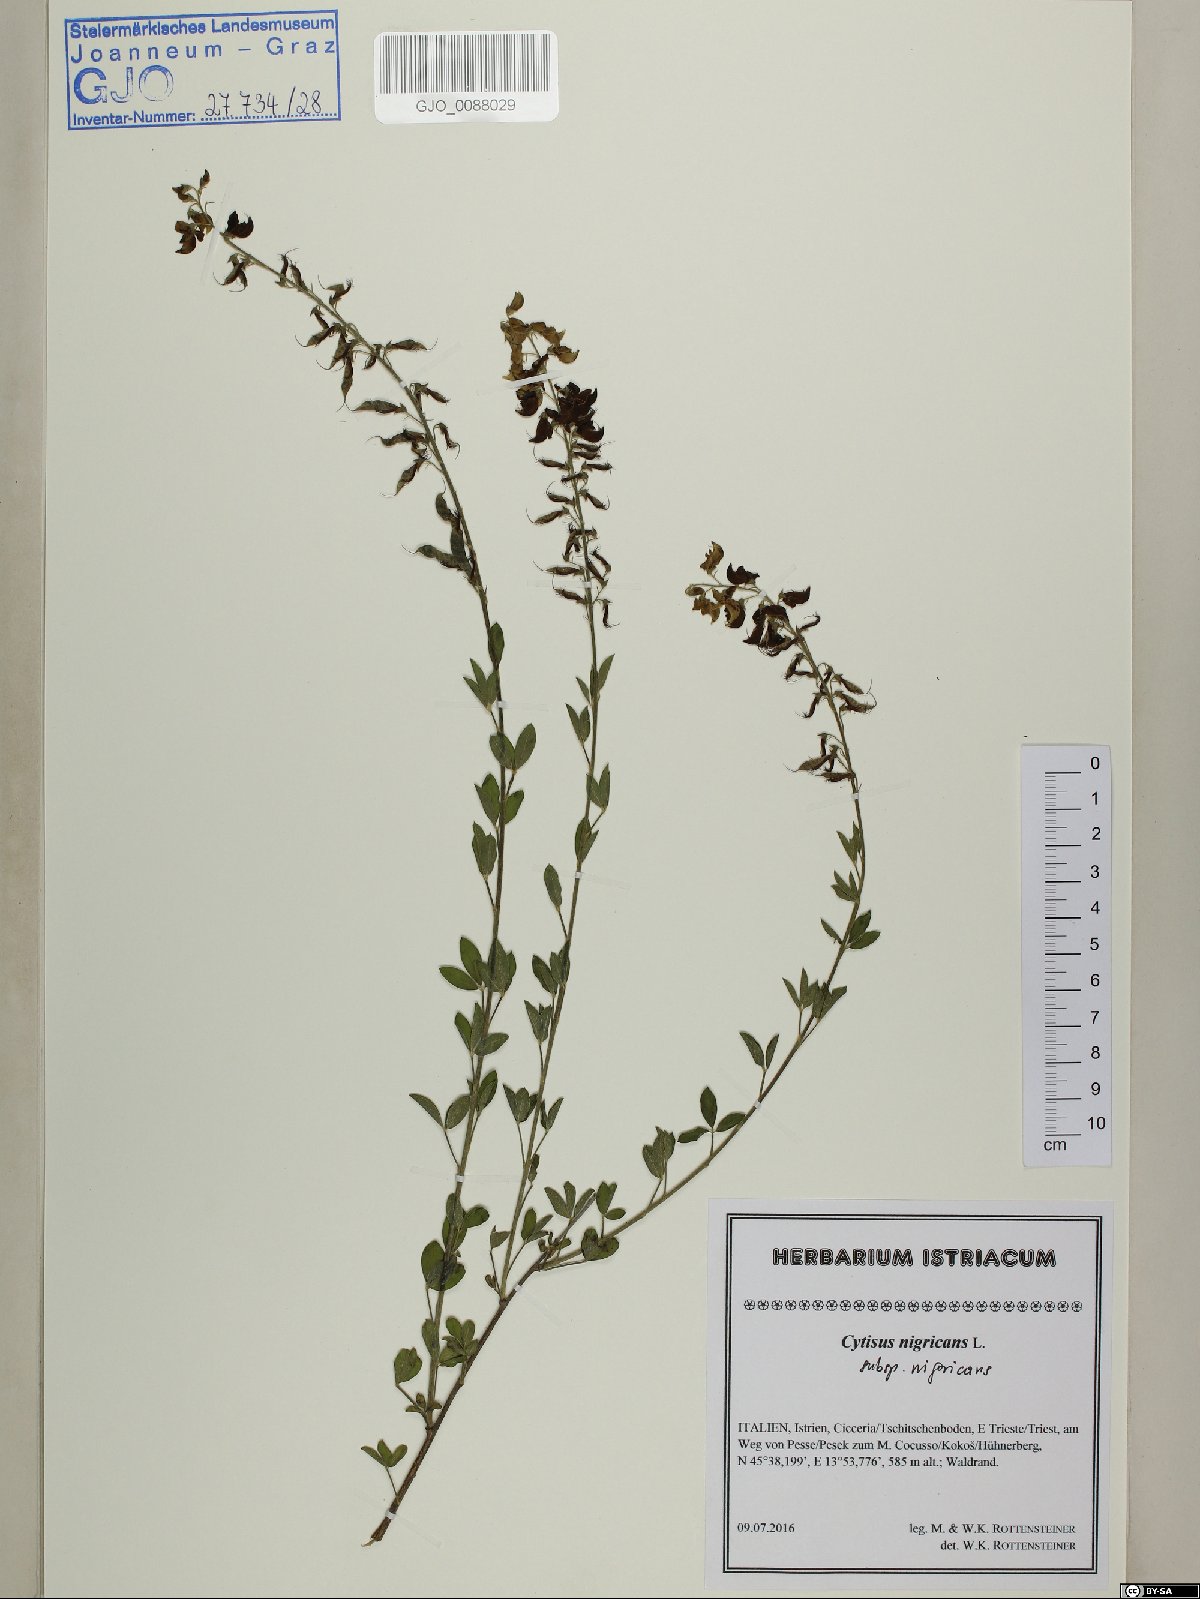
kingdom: Plantae
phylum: Tracheophyta
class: Magnoliopsida
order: Fabales
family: Fabaceae
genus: Cytisus
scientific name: Cytisus nigricans
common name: Black broom
